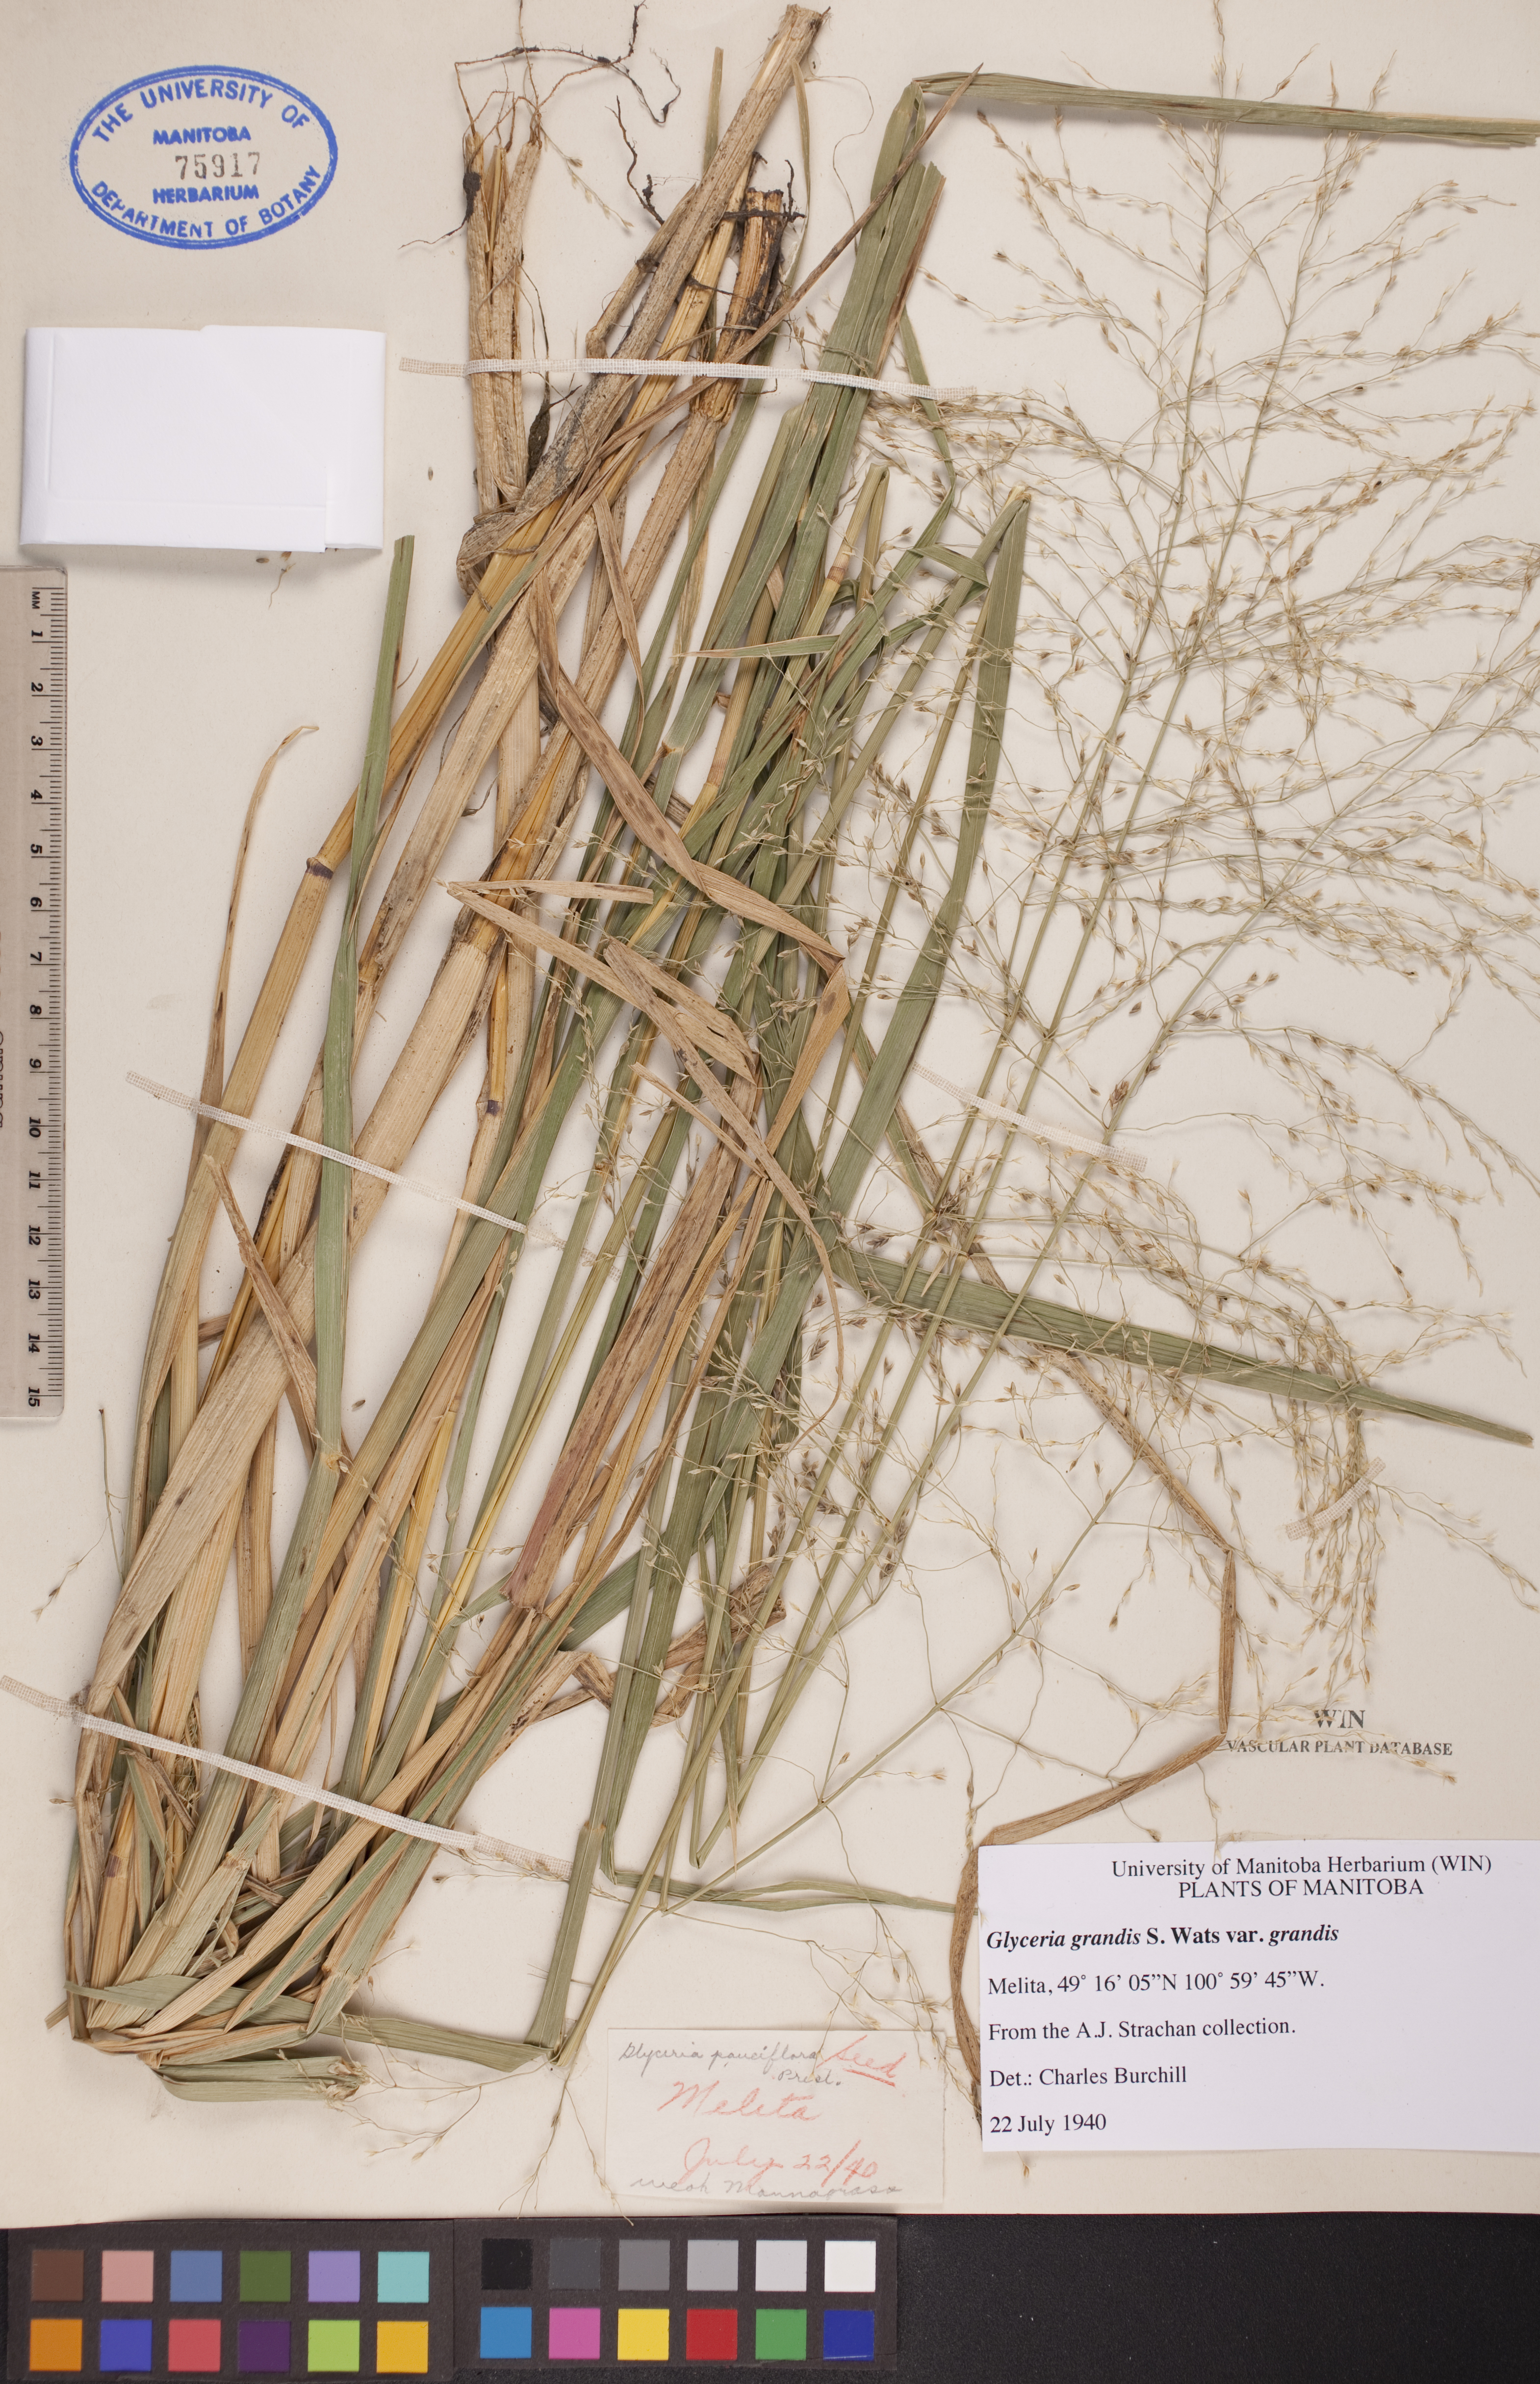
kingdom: Plantae
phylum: Tracheophyta
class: Liliopsida
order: Poales
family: Poaceae
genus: Glyceria
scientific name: Glyceria grandis
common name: American glyceria
